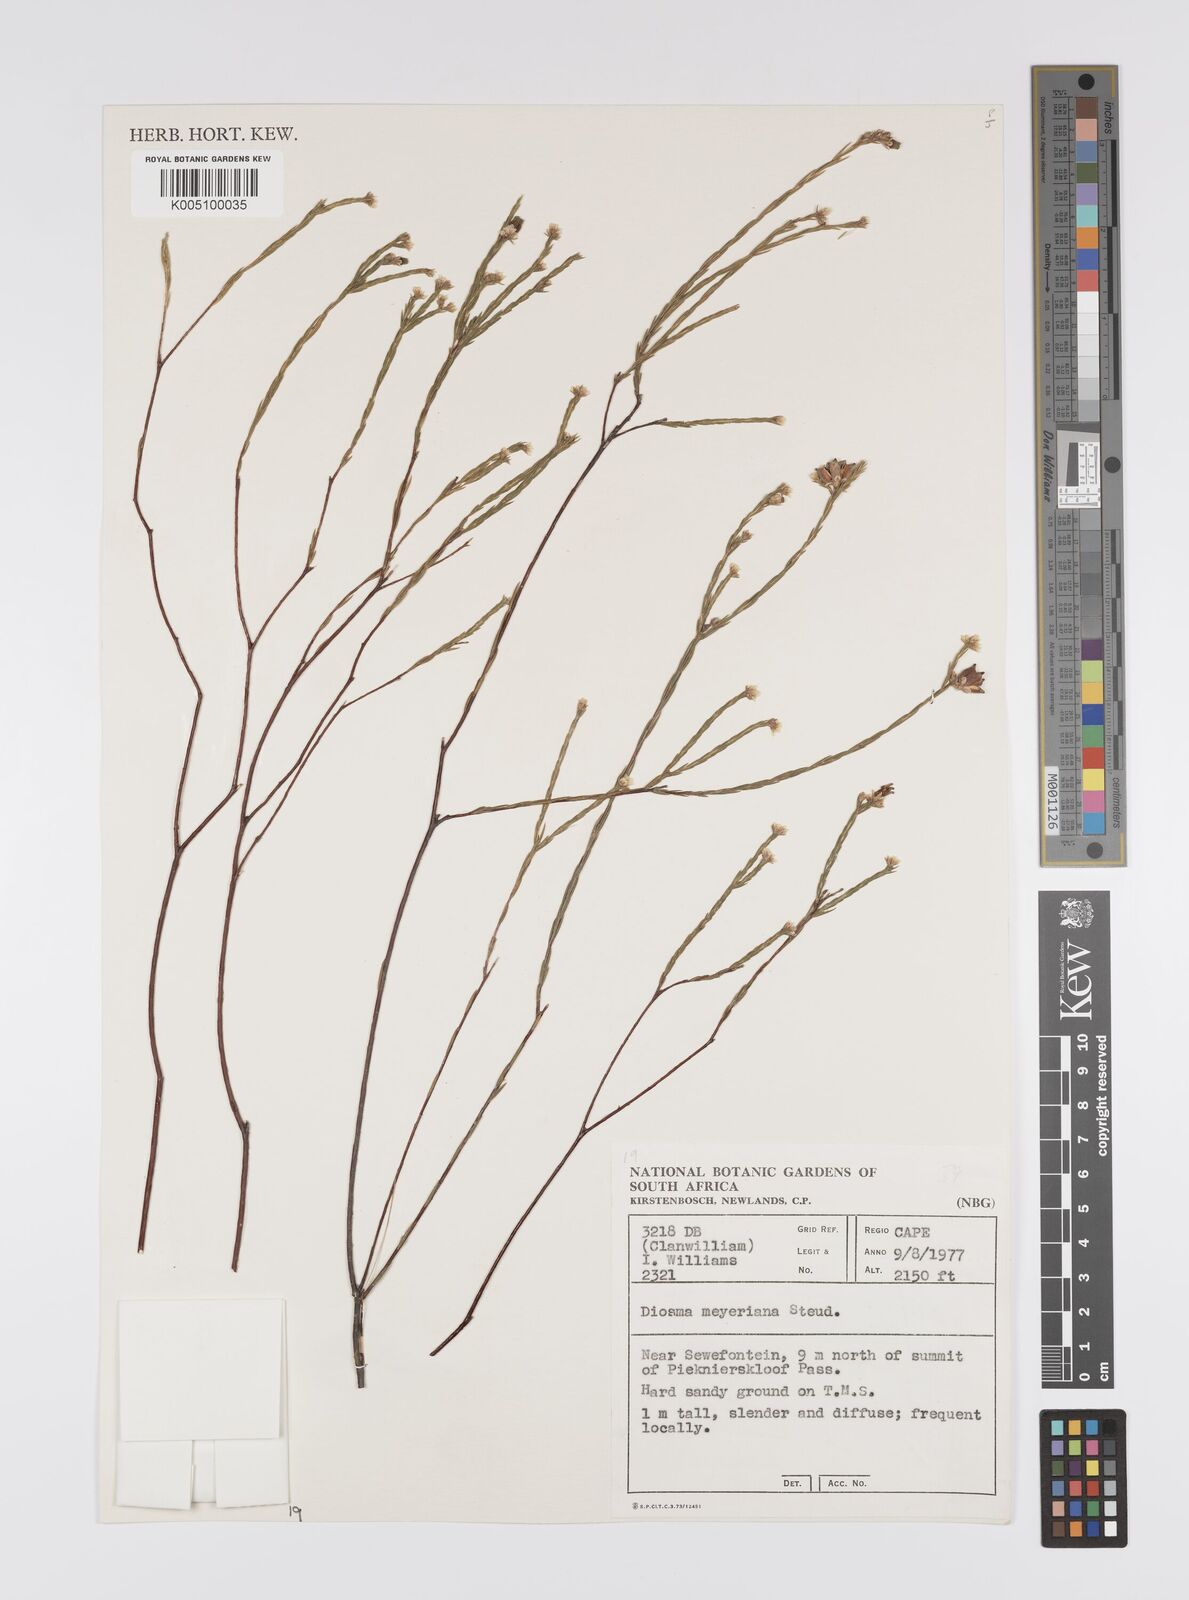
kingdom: Plantae
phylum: Tracheophyta
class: Magnoliopsida
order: Sapindales
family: Rutaceae
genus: Diosma
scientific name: Diosma
